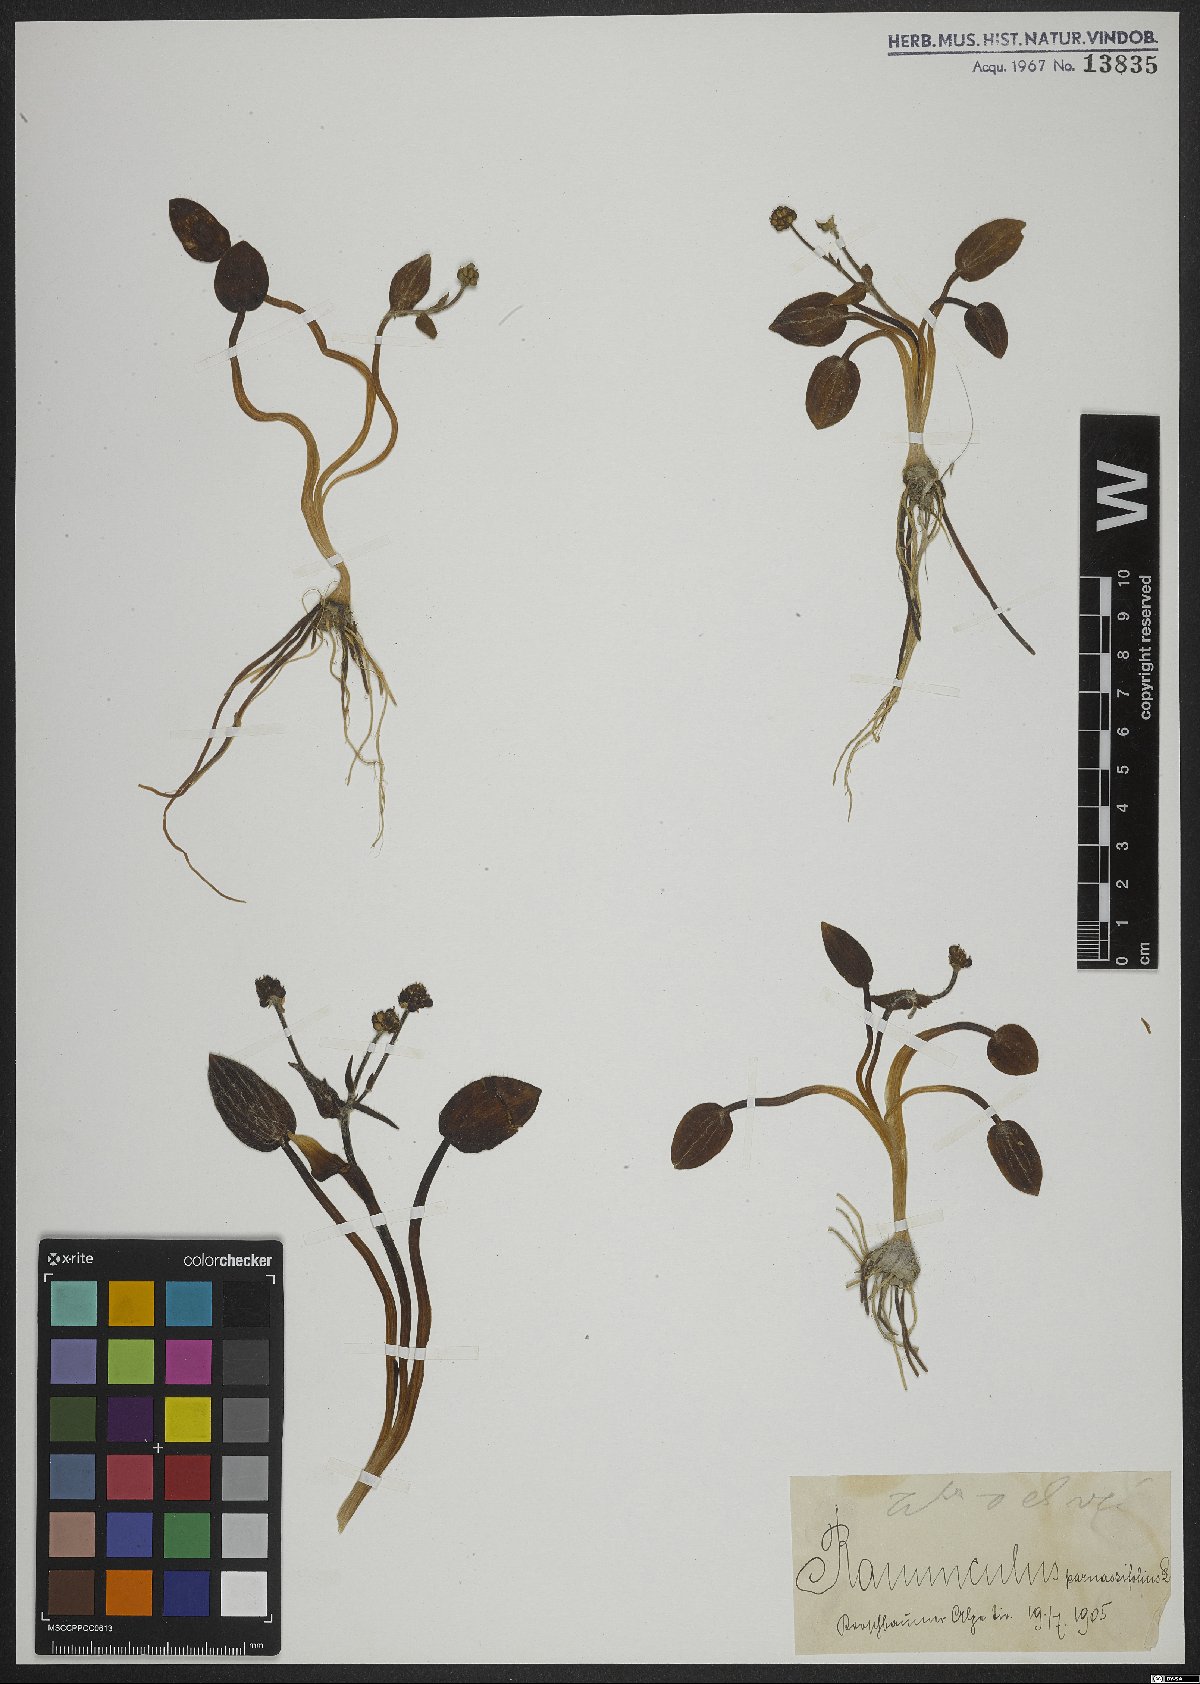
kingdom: Plantae
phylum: Tracheophyta
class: Magnoliopsida
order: Ranunculales
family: Ranunculaceae
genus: Ranunculus
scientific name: Ranunculus parnassiifolius
